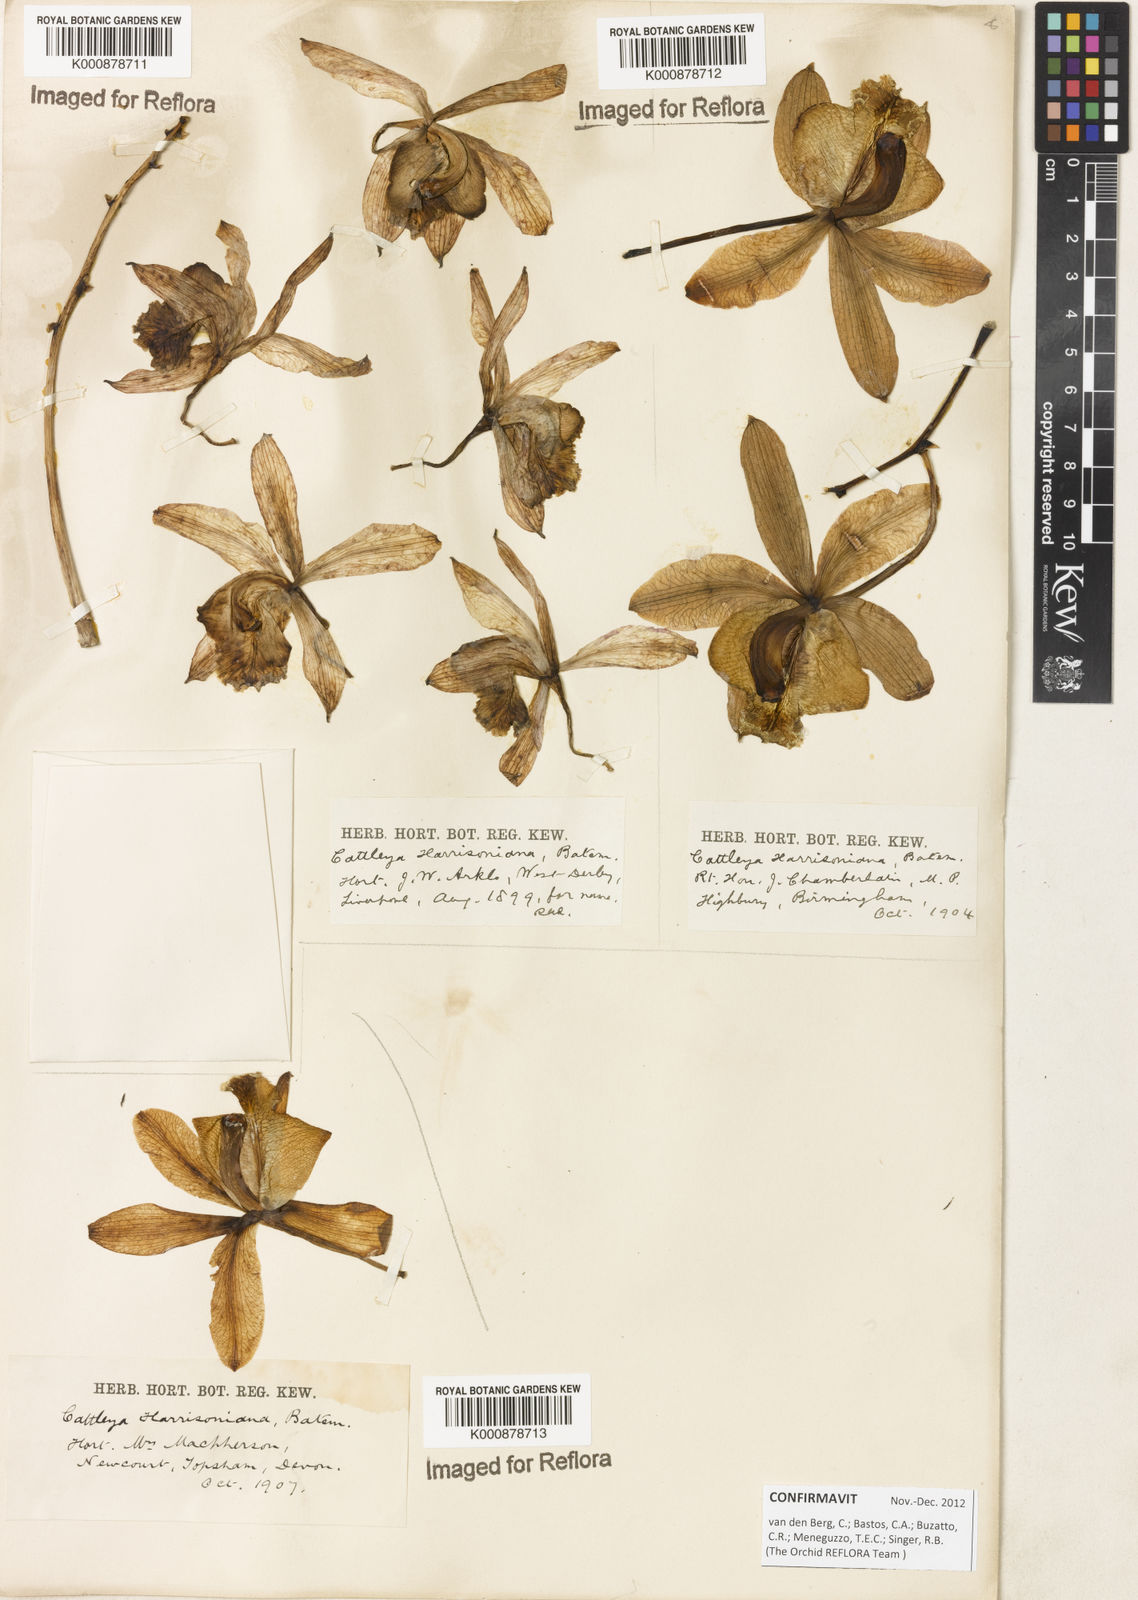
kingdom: Plantae
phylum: Tracheophyta
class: Liliopsida
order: Asparagales
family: Orchidaceae
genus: Cattleya
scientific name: Cattleya harrisoniana
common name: Harrison's cattleya
